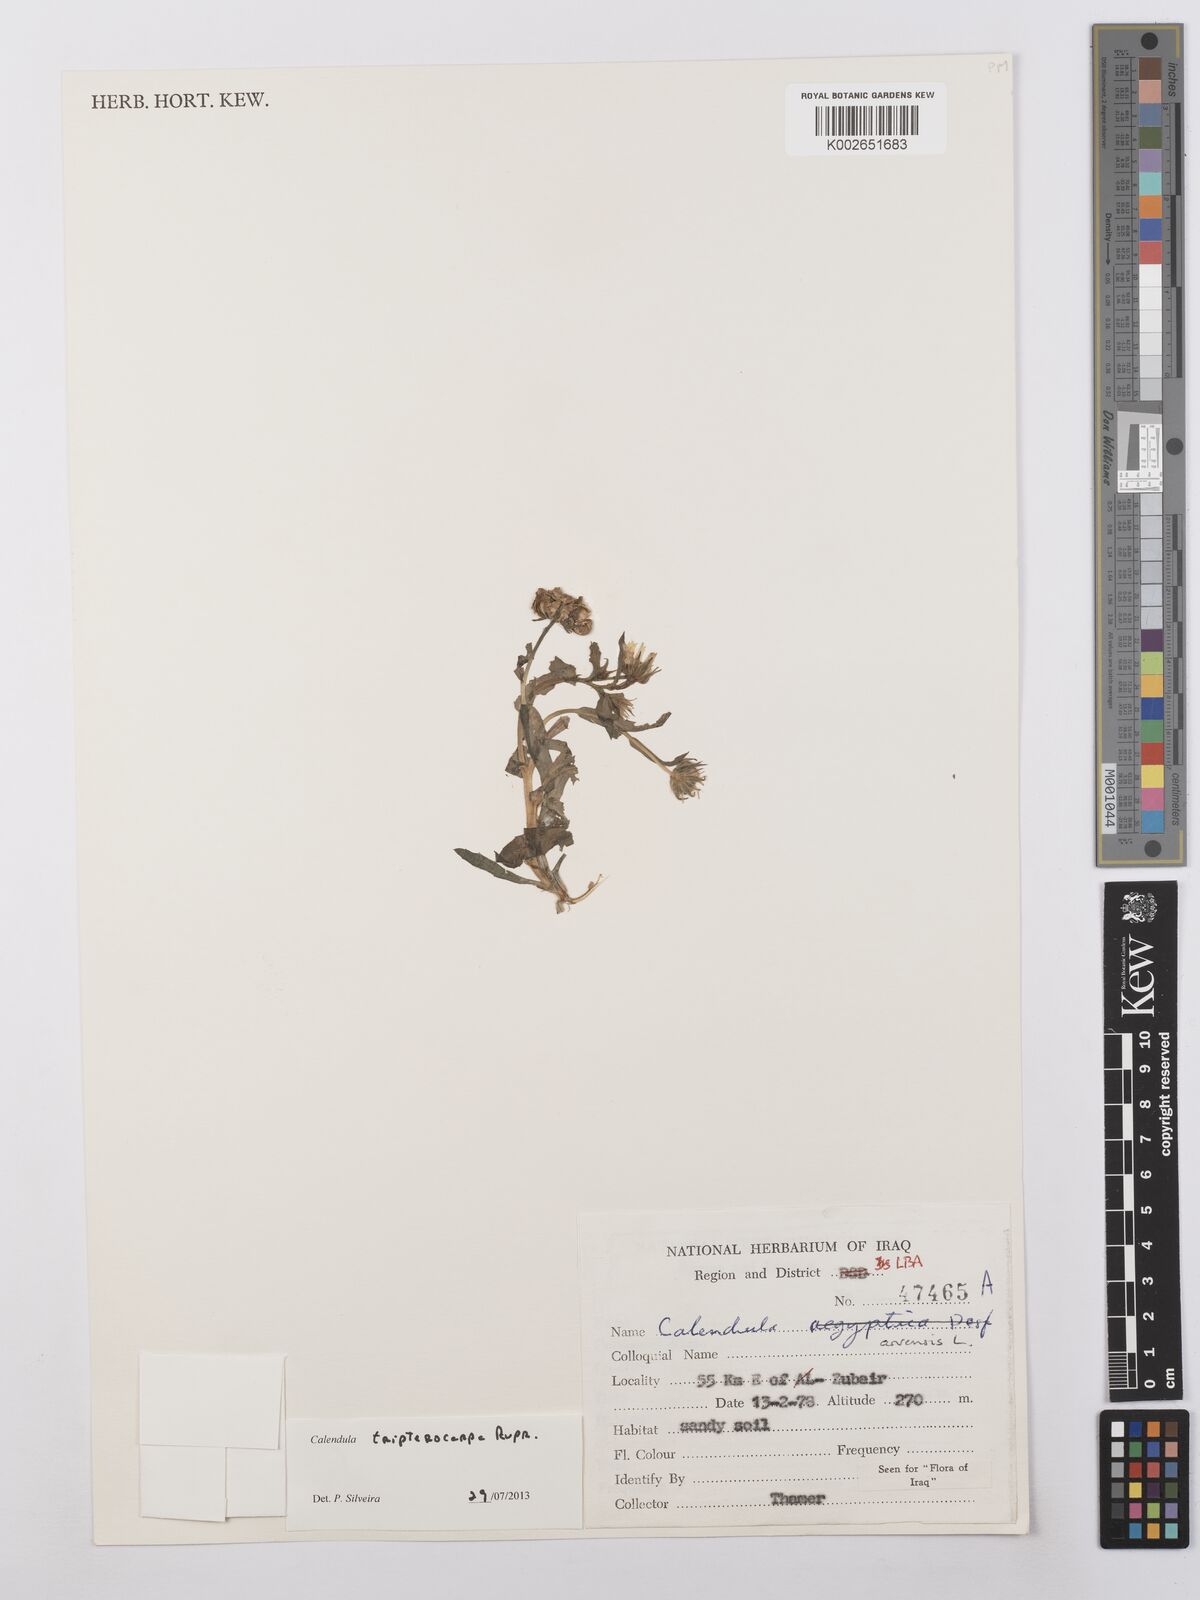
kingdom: Plantae
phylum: Tracheophyta
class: Magnoliopsida
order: Asterales
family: Asteraceae
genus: Calendula
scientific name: Calendula tripterocarpa
